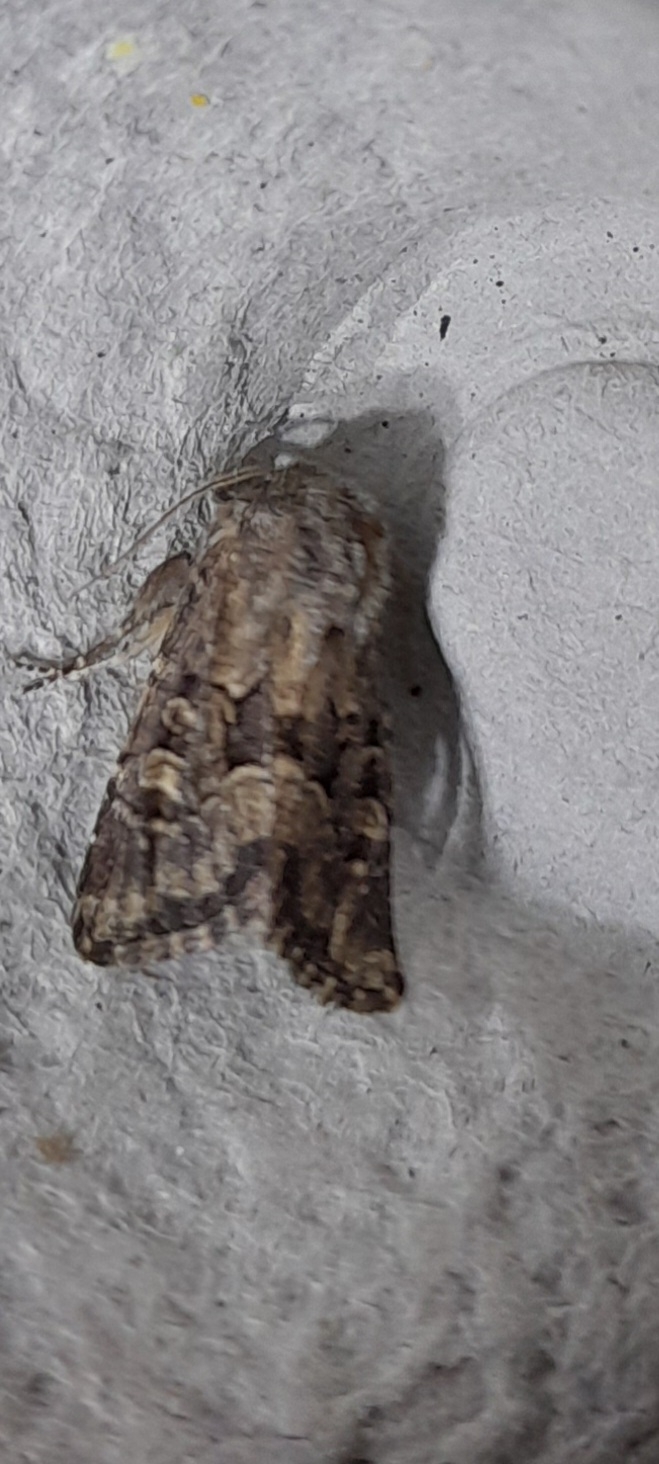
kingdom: Animalia
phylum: Arthropoda
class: Insecta
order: Lepidoptera
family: Noctuidae
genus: Luperina
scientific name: Luperina testacea
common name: Frøgræsugle
